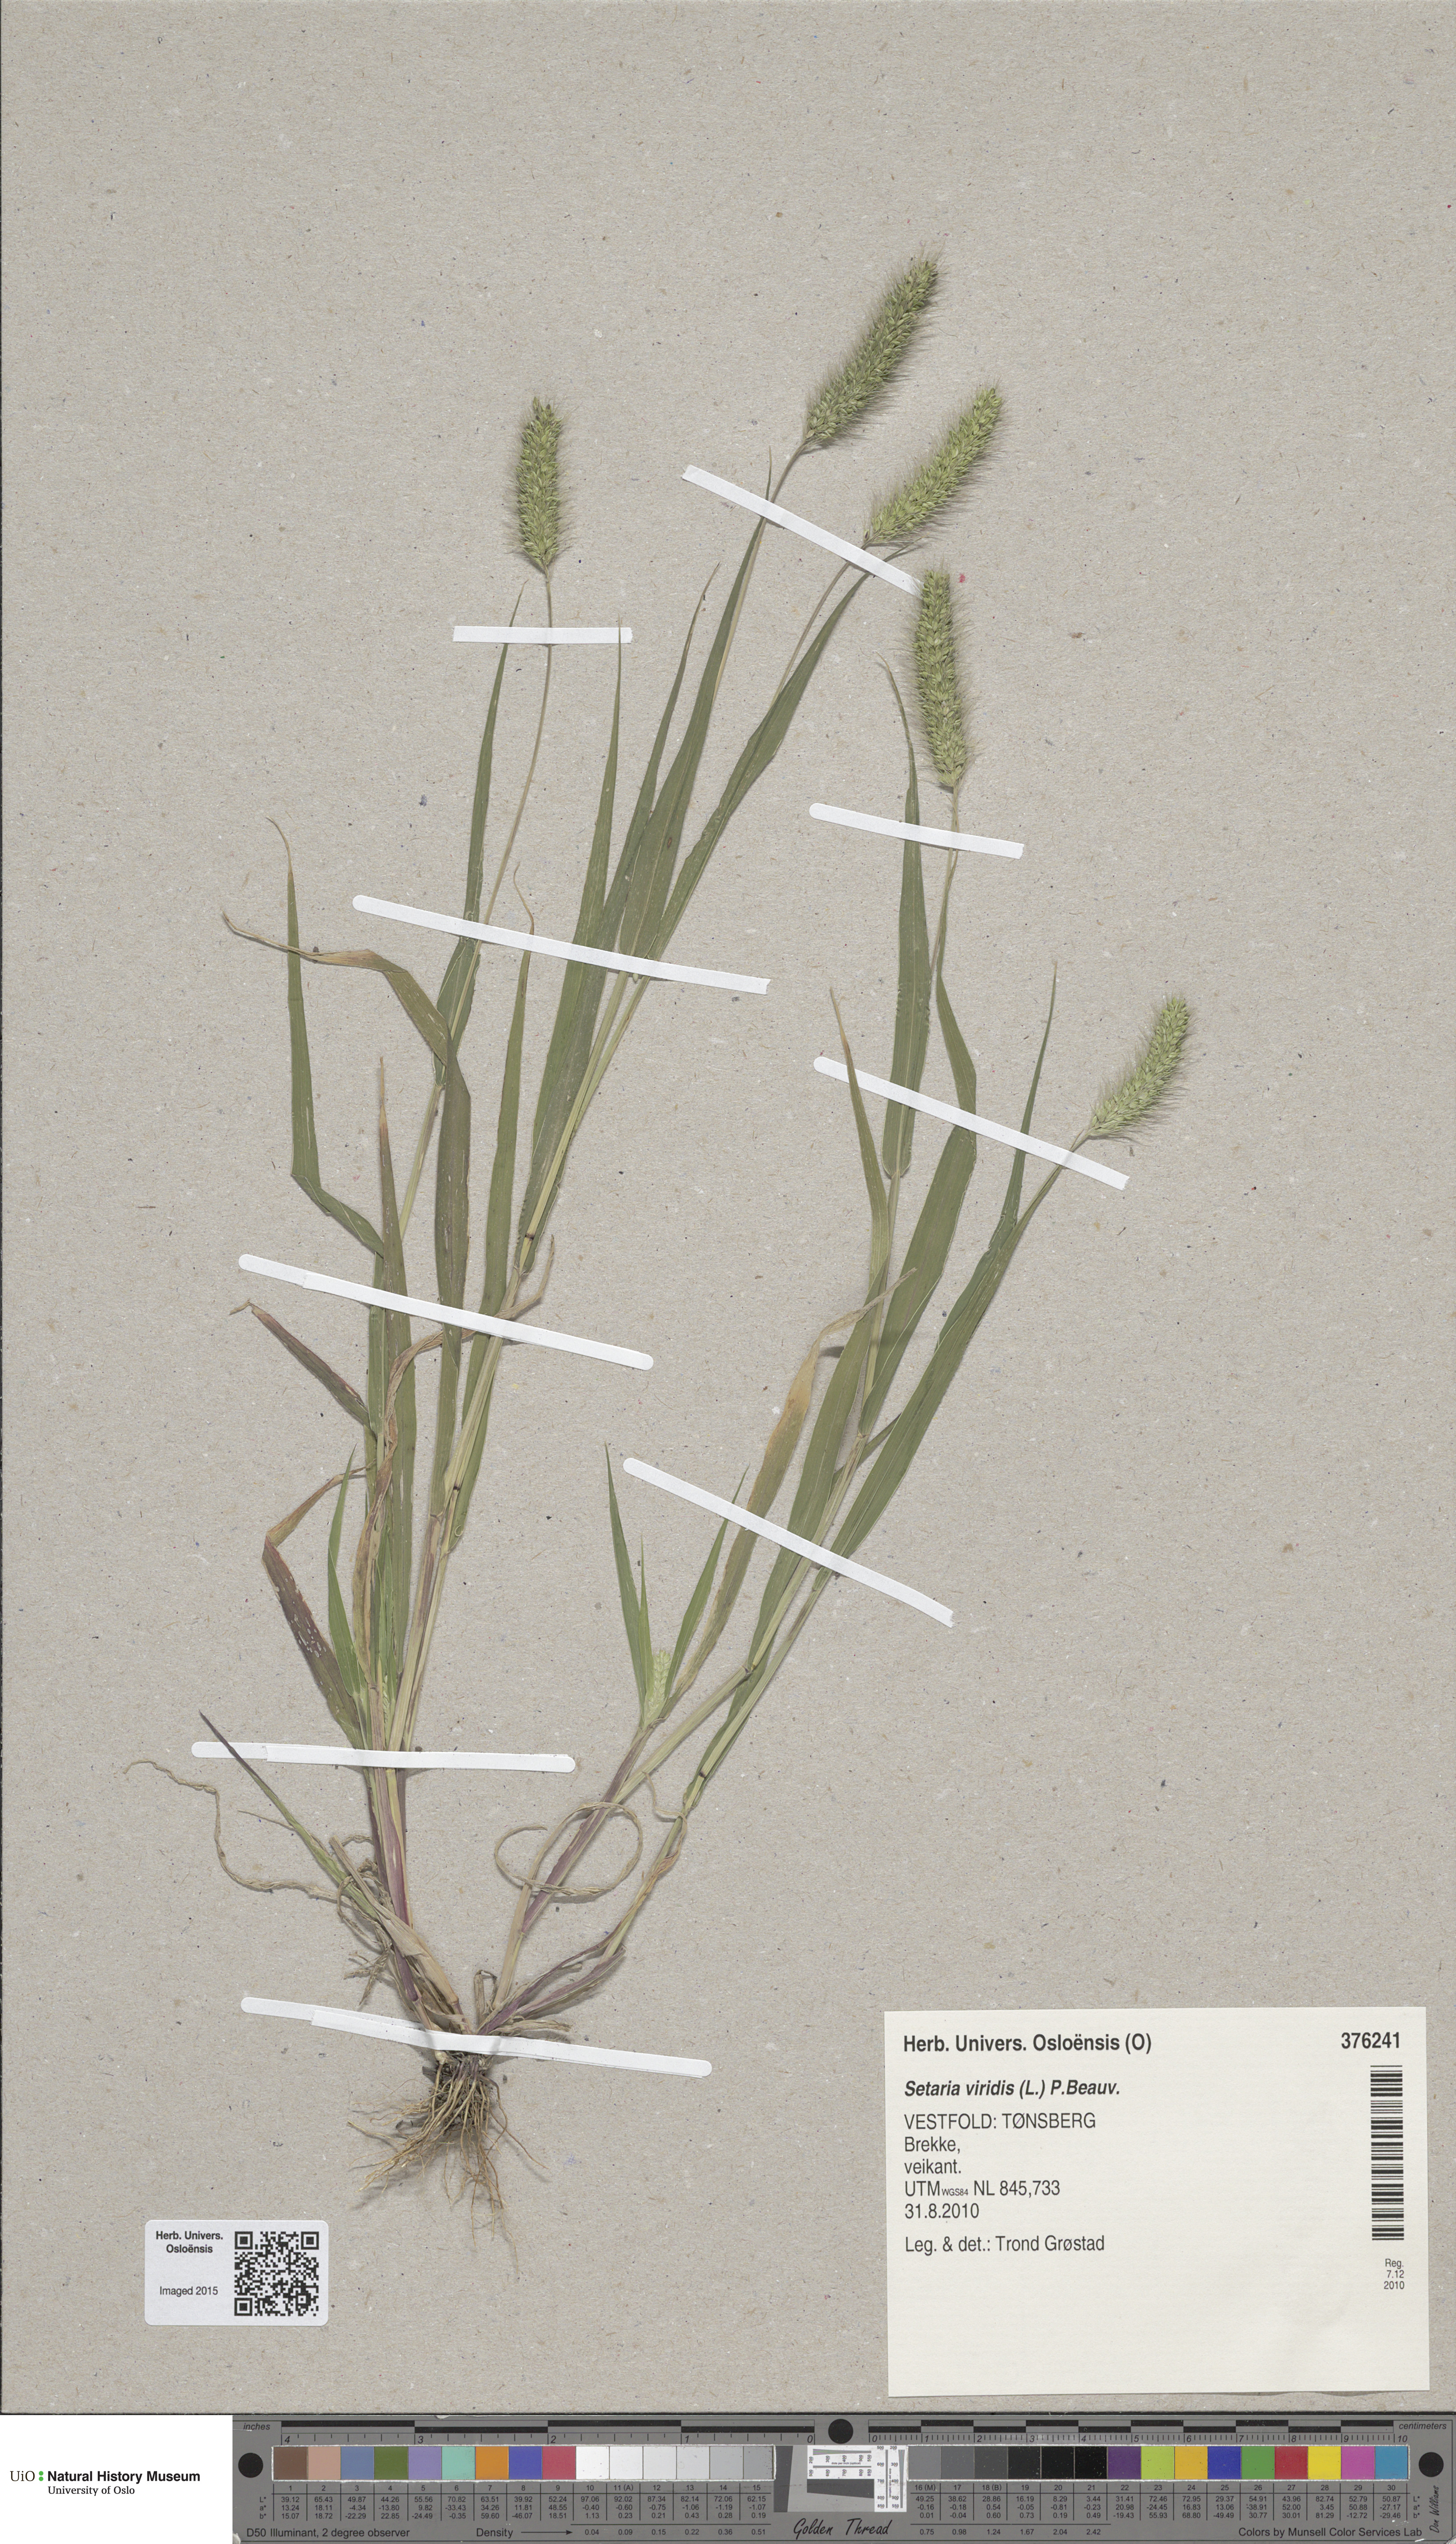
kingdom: Plantae
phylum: Tracheophyta
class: Liliopsida
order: Poales
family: Poaceae
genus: Setaria
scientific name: Setaria viridis
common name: Green bristlegrass
